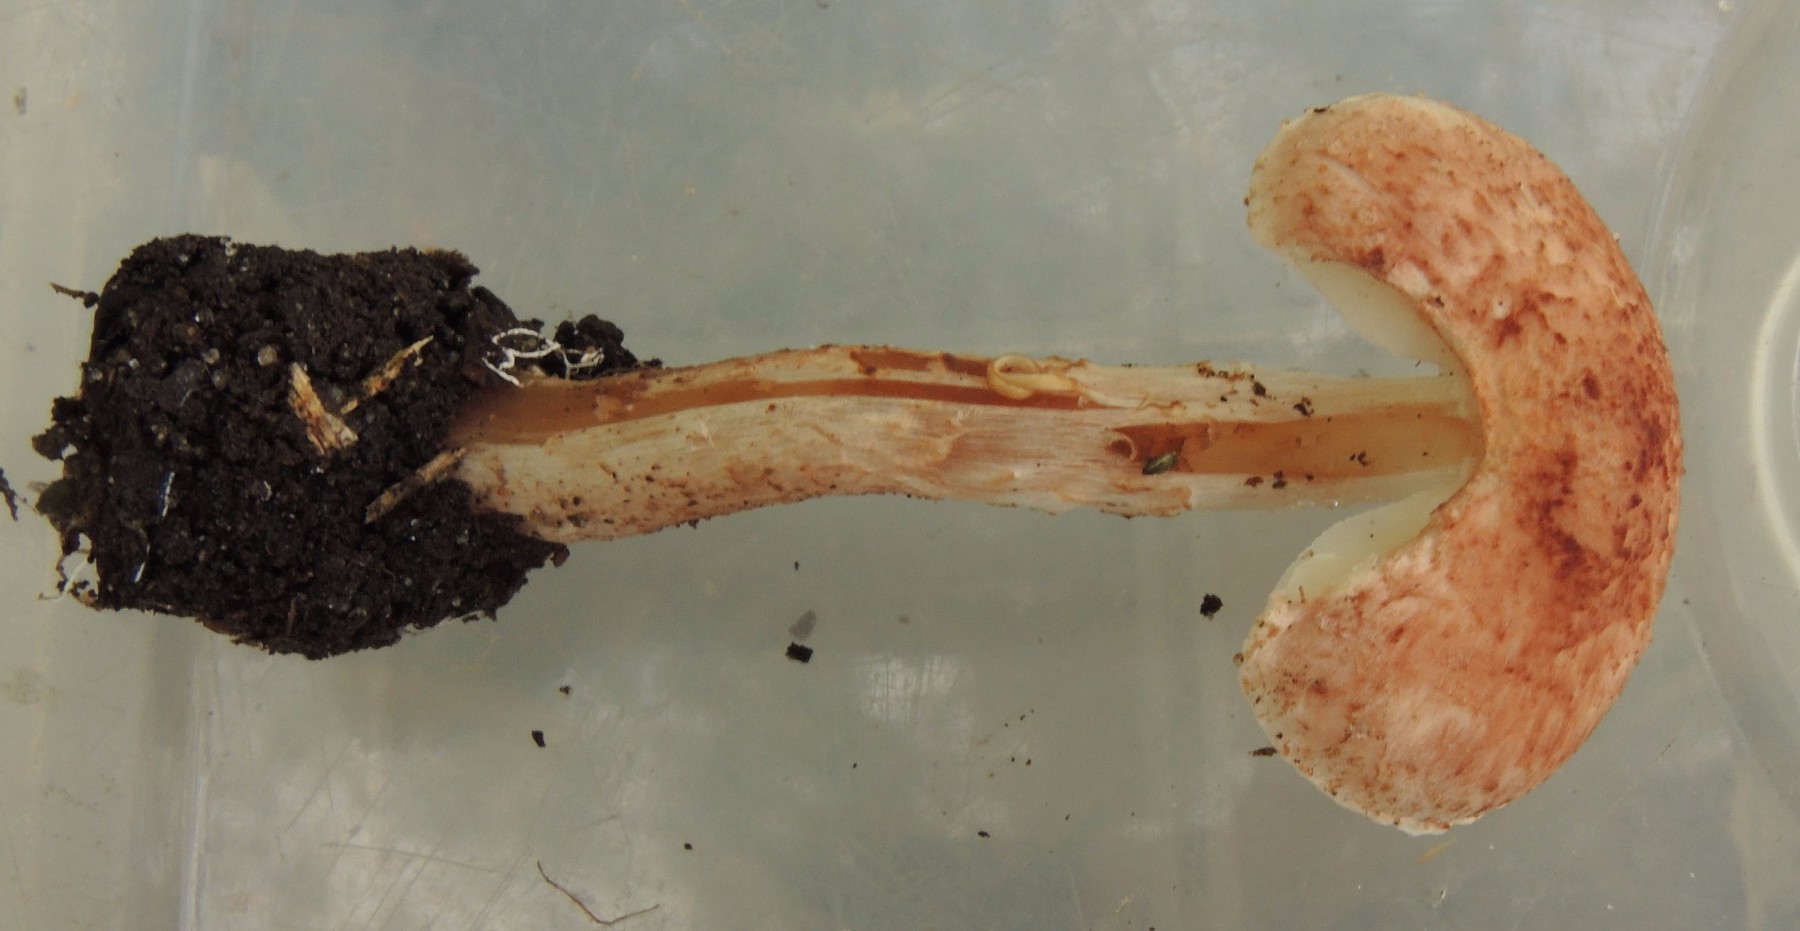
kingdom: Fungi
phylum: Basidiomycota
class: Agaricomycetes
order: Agaricales
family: Agaricaceae
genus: Lepiota
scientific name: Lepiota subincarnata
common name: kødfarvet parasolhat
